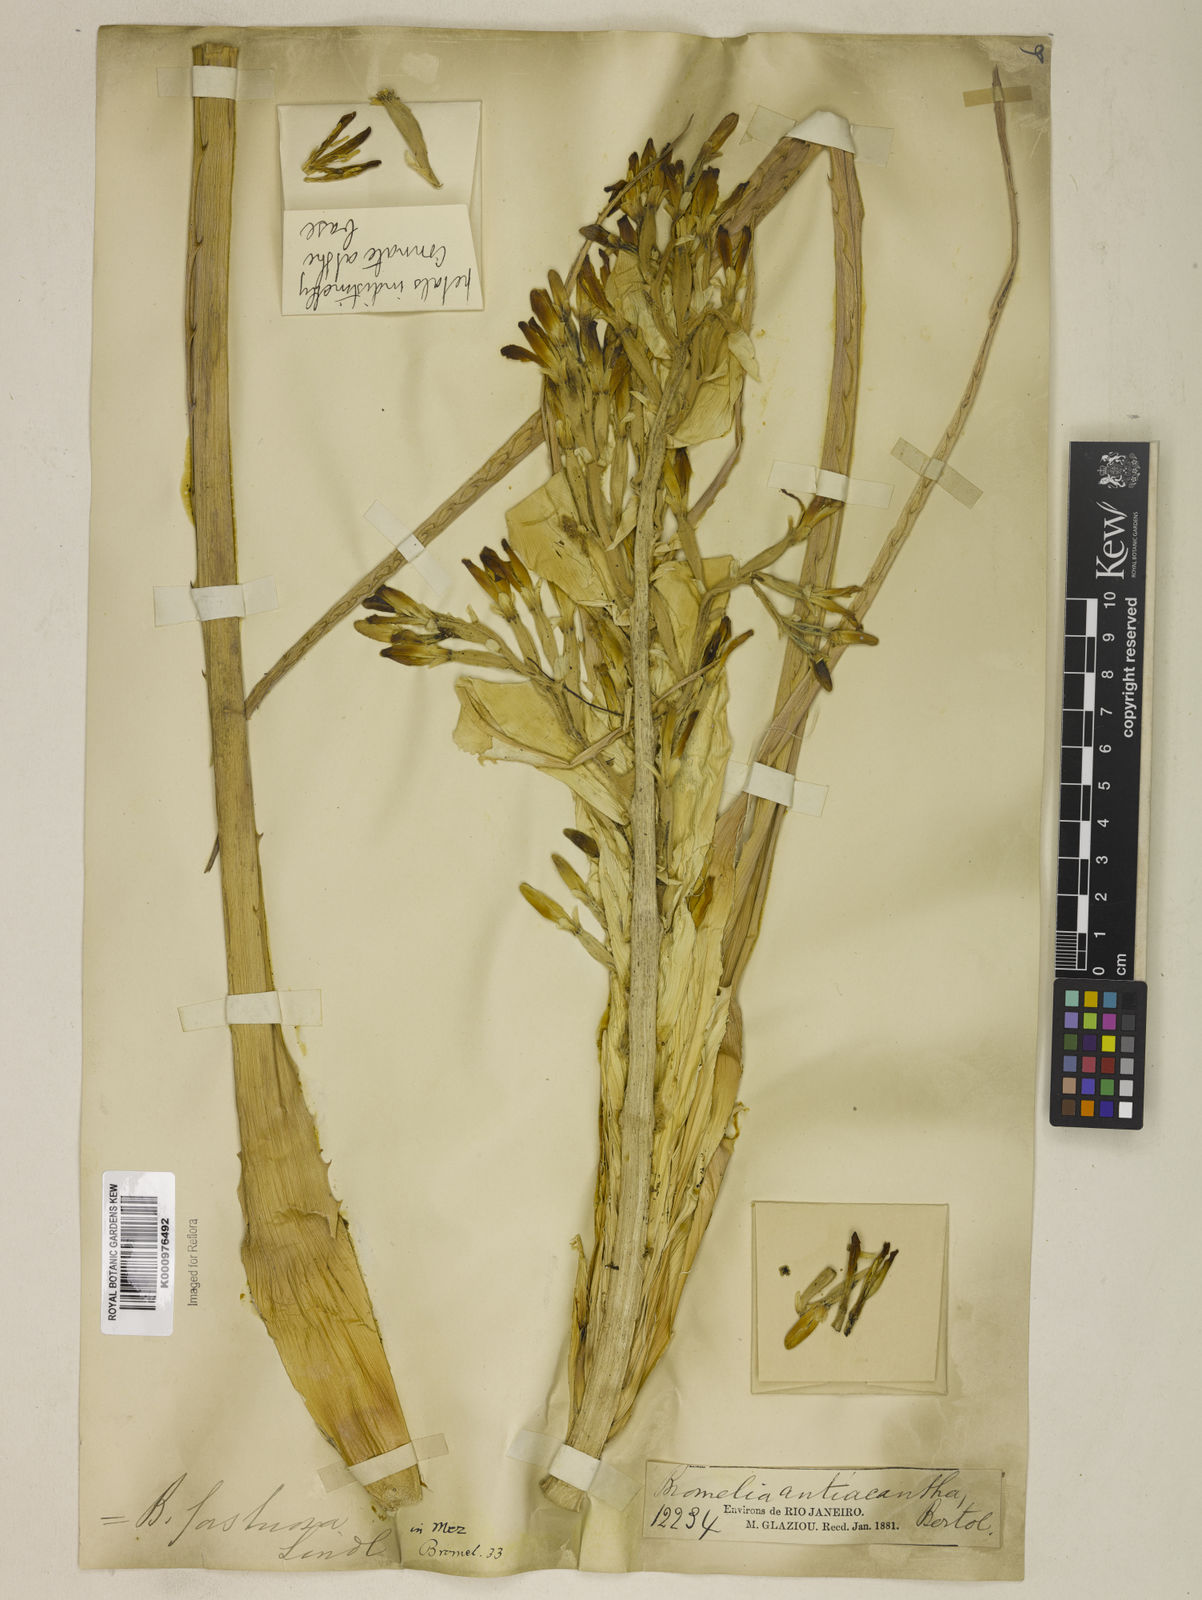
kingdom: Plantae
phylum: Tracheophyta
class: Liliopsida
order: Poales
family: Bromeliaceae
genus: Bromelia
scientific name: Bromelia antiacantha
